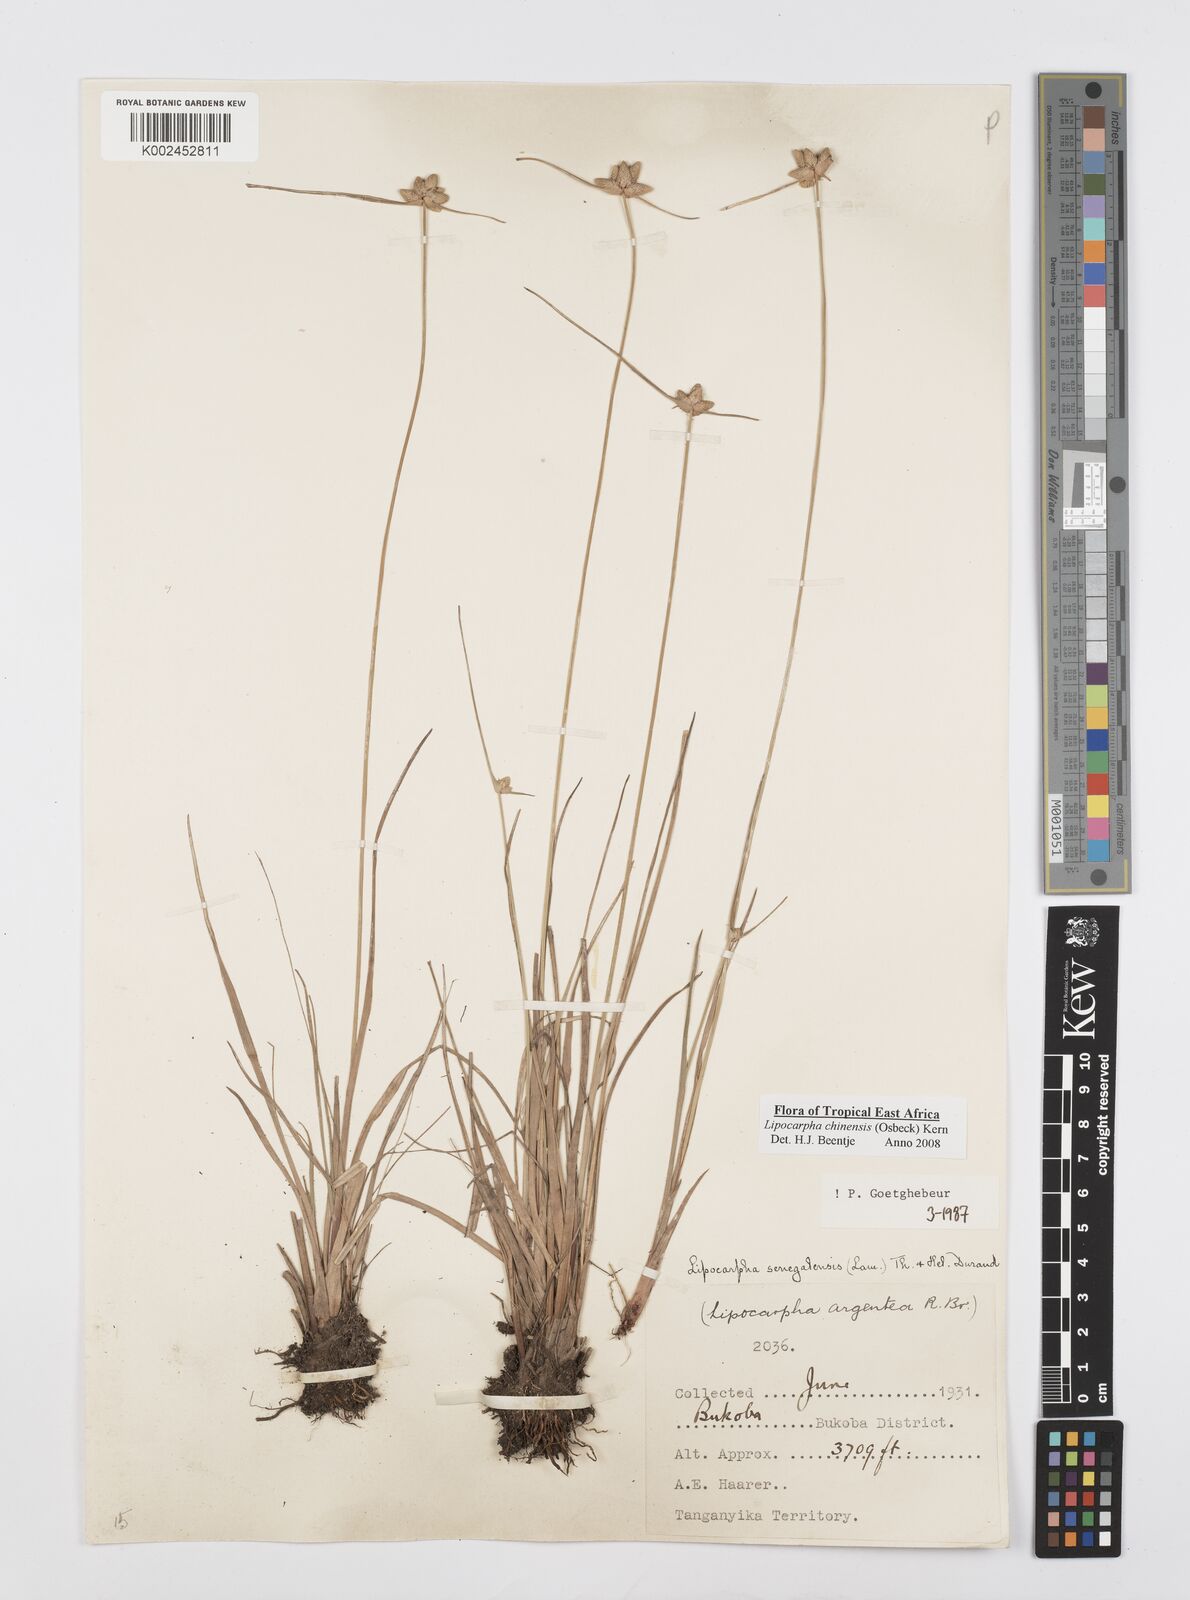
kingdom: Plantae
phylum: Tracheophyta
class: Liliopsida
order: Poales
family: Cyperaceae
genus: Cyperus
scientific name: Cyperus albescens
